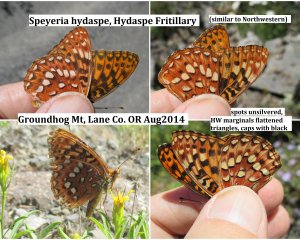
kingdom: Animalia
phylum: Arthropoda
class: Insecta
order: Lepidoptera
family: Nymphalidae
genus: Speyeria
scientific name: Speyeria hydaspe
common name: Hydaspe Fritillary
